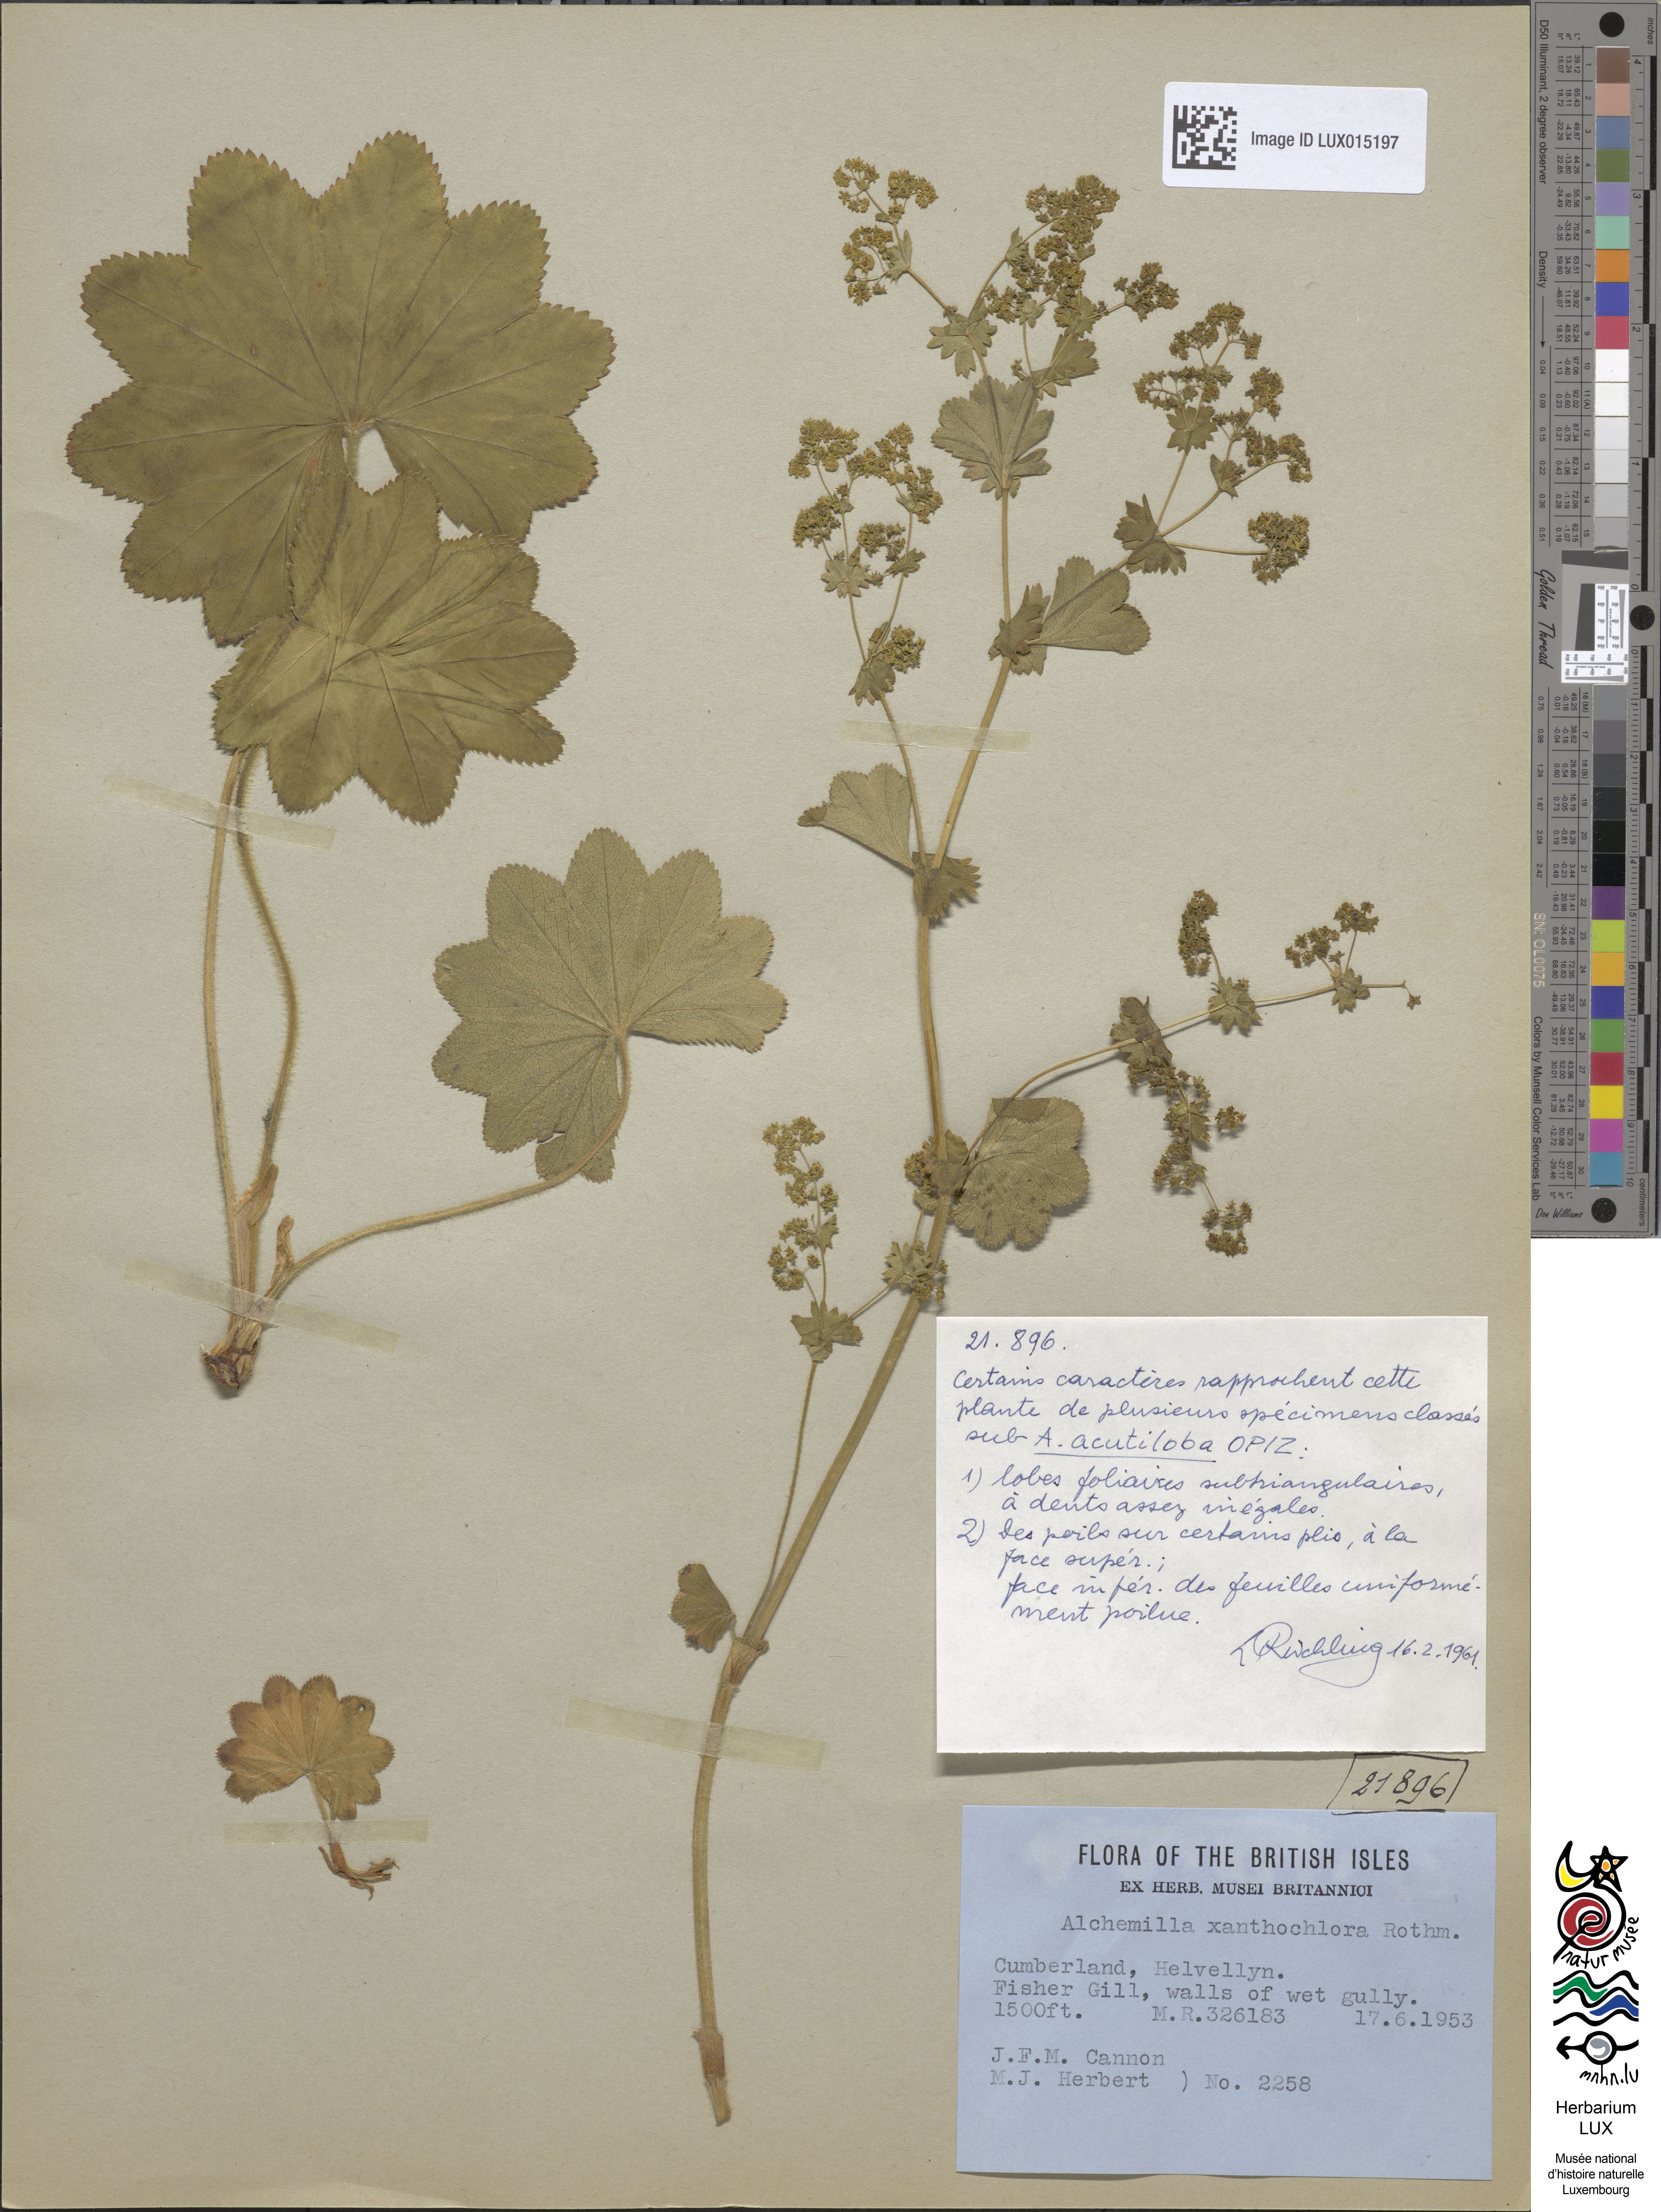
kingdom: Plantae
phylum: Tracheophyta
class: Magnoliopsida
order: Rosales
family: Rosaceae
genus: Alchemilla
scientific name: Alchemilla xanthochlora
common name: Intermediate lady's-mantle
